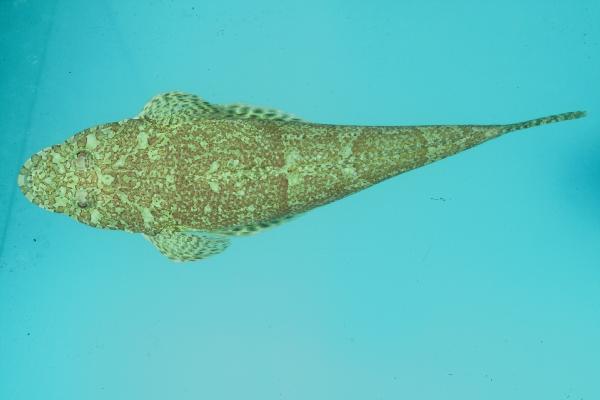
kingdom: Animalia
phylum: Chordata
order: Scorpaeniformes
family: Platycephalidae
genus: Sunagocia
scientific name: Sunagocia arenicola
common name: Broadhead flathead
